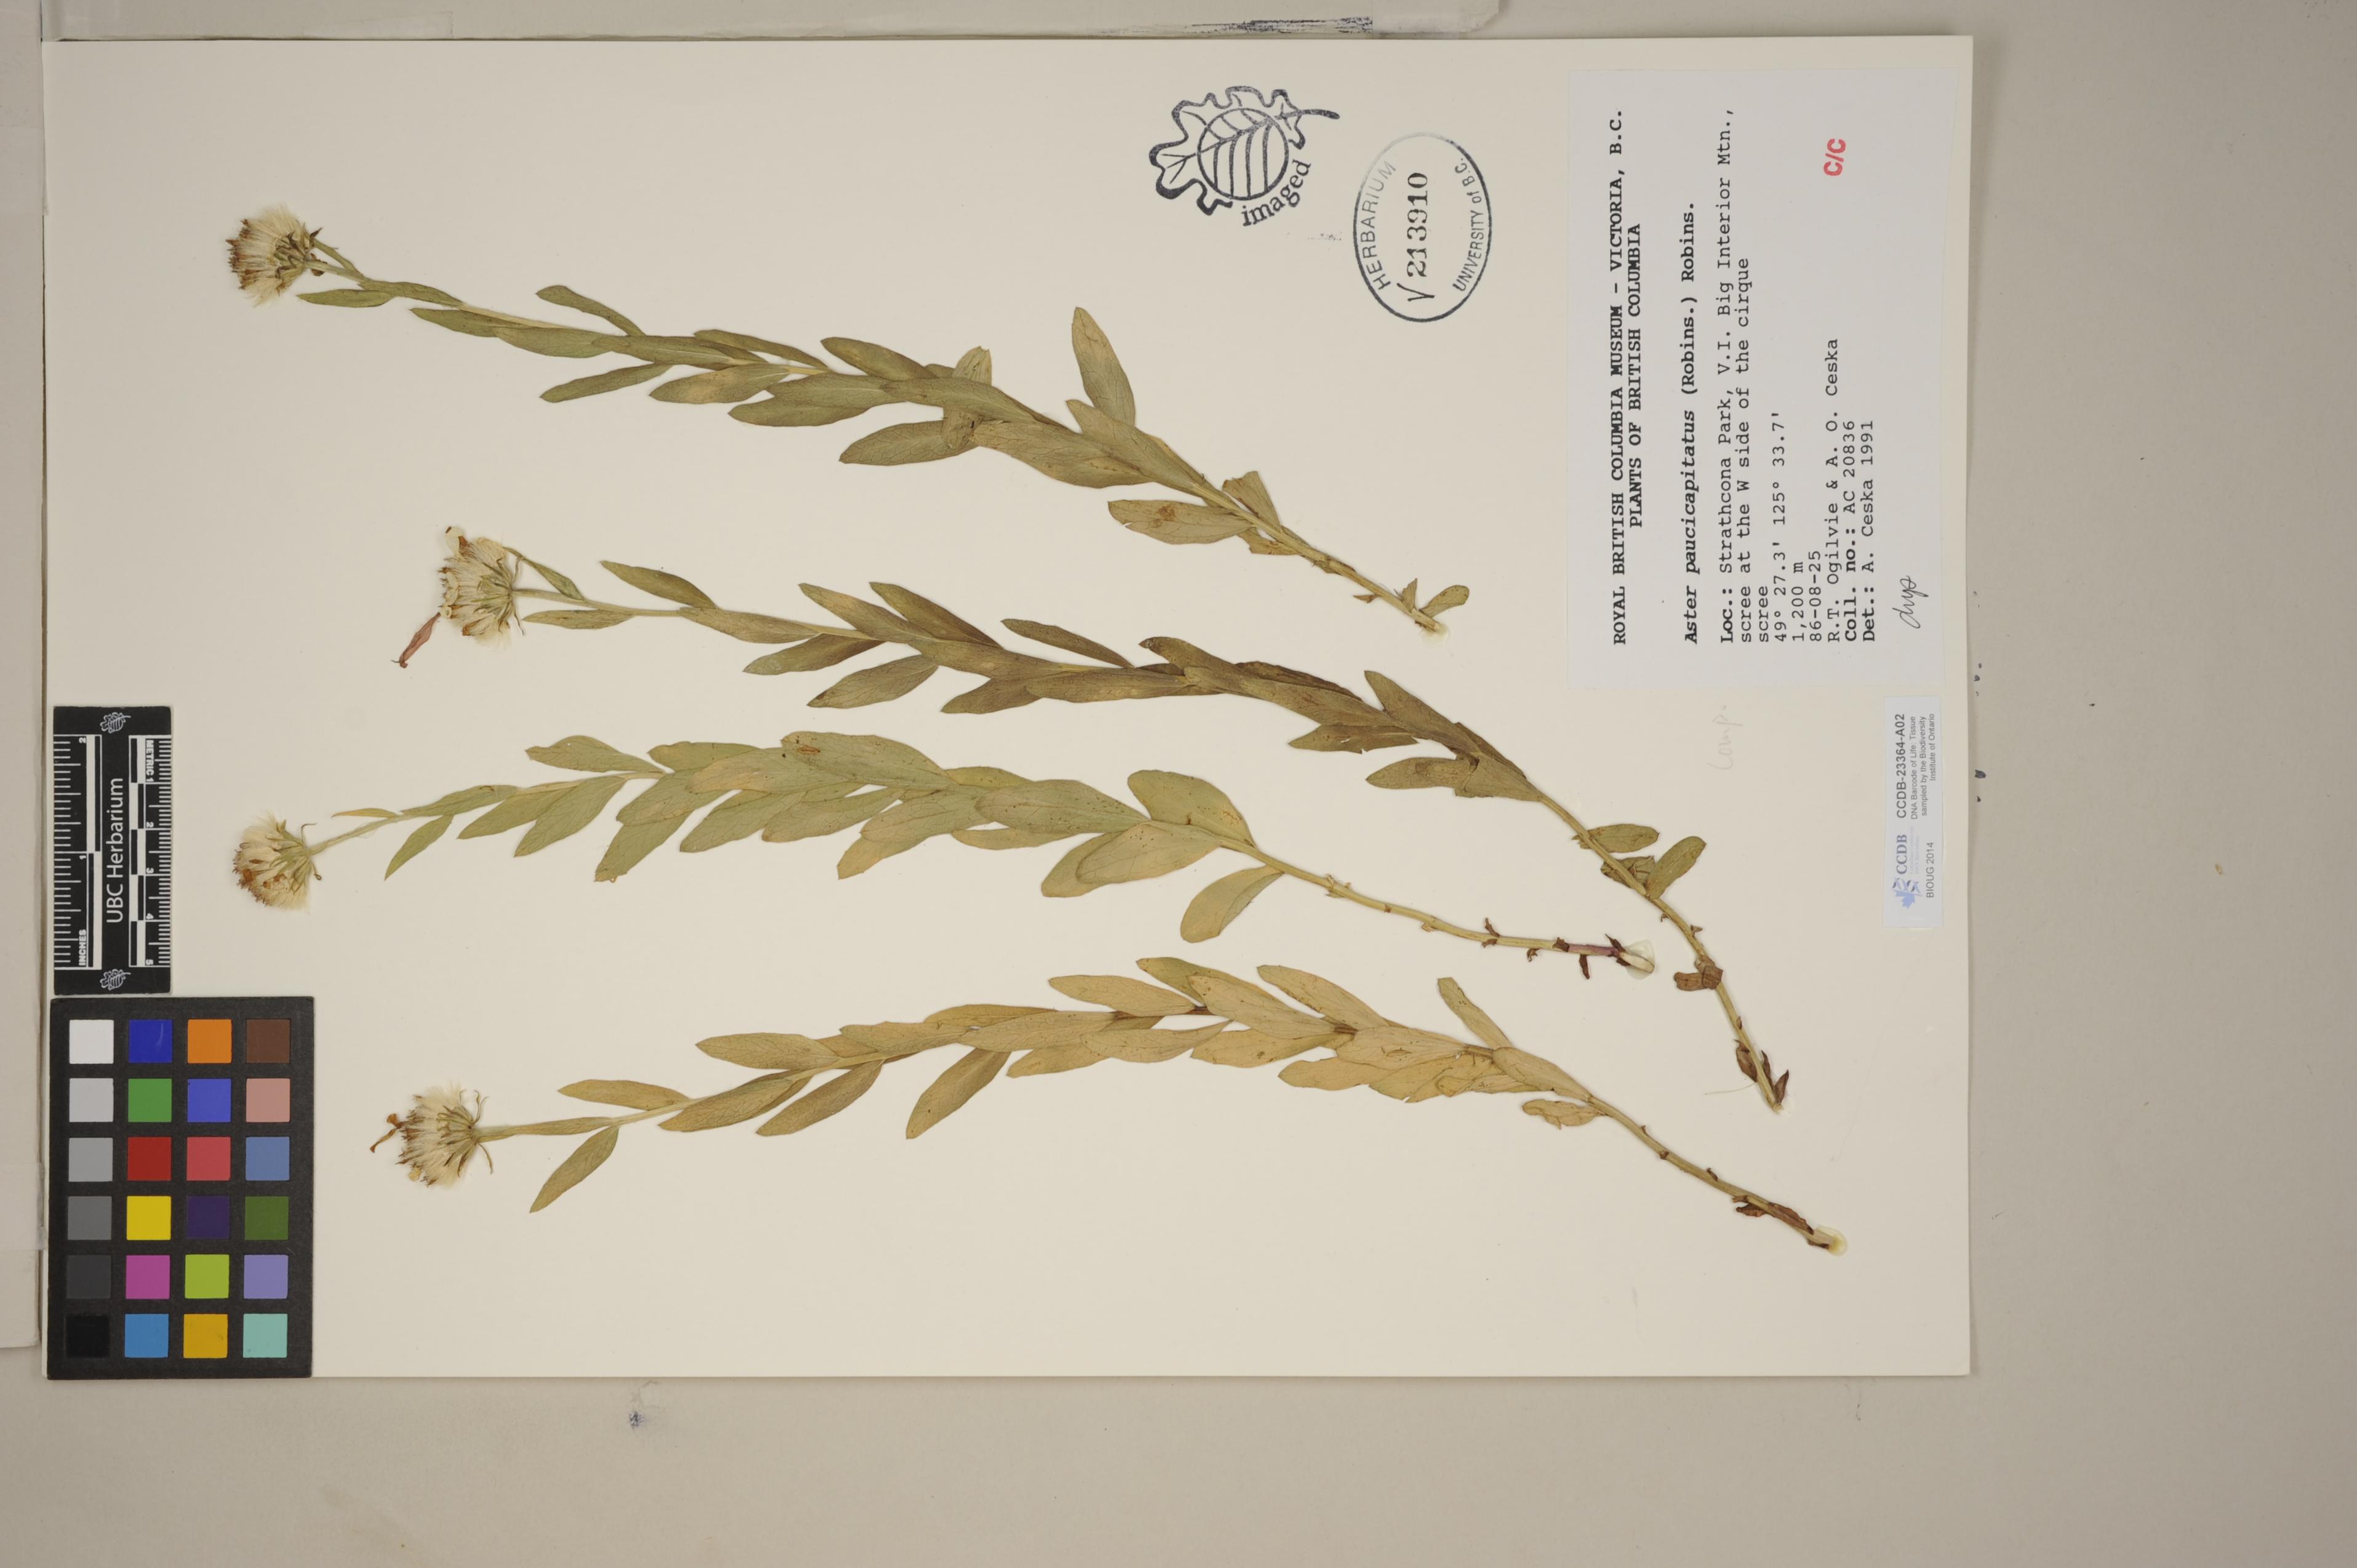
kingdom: Plantae
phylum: Tracheophyta
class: Magnoliopsida
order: Asterales
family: Asteraceae
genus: Eucephalus
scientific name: Eucephalus paucicapitatus
